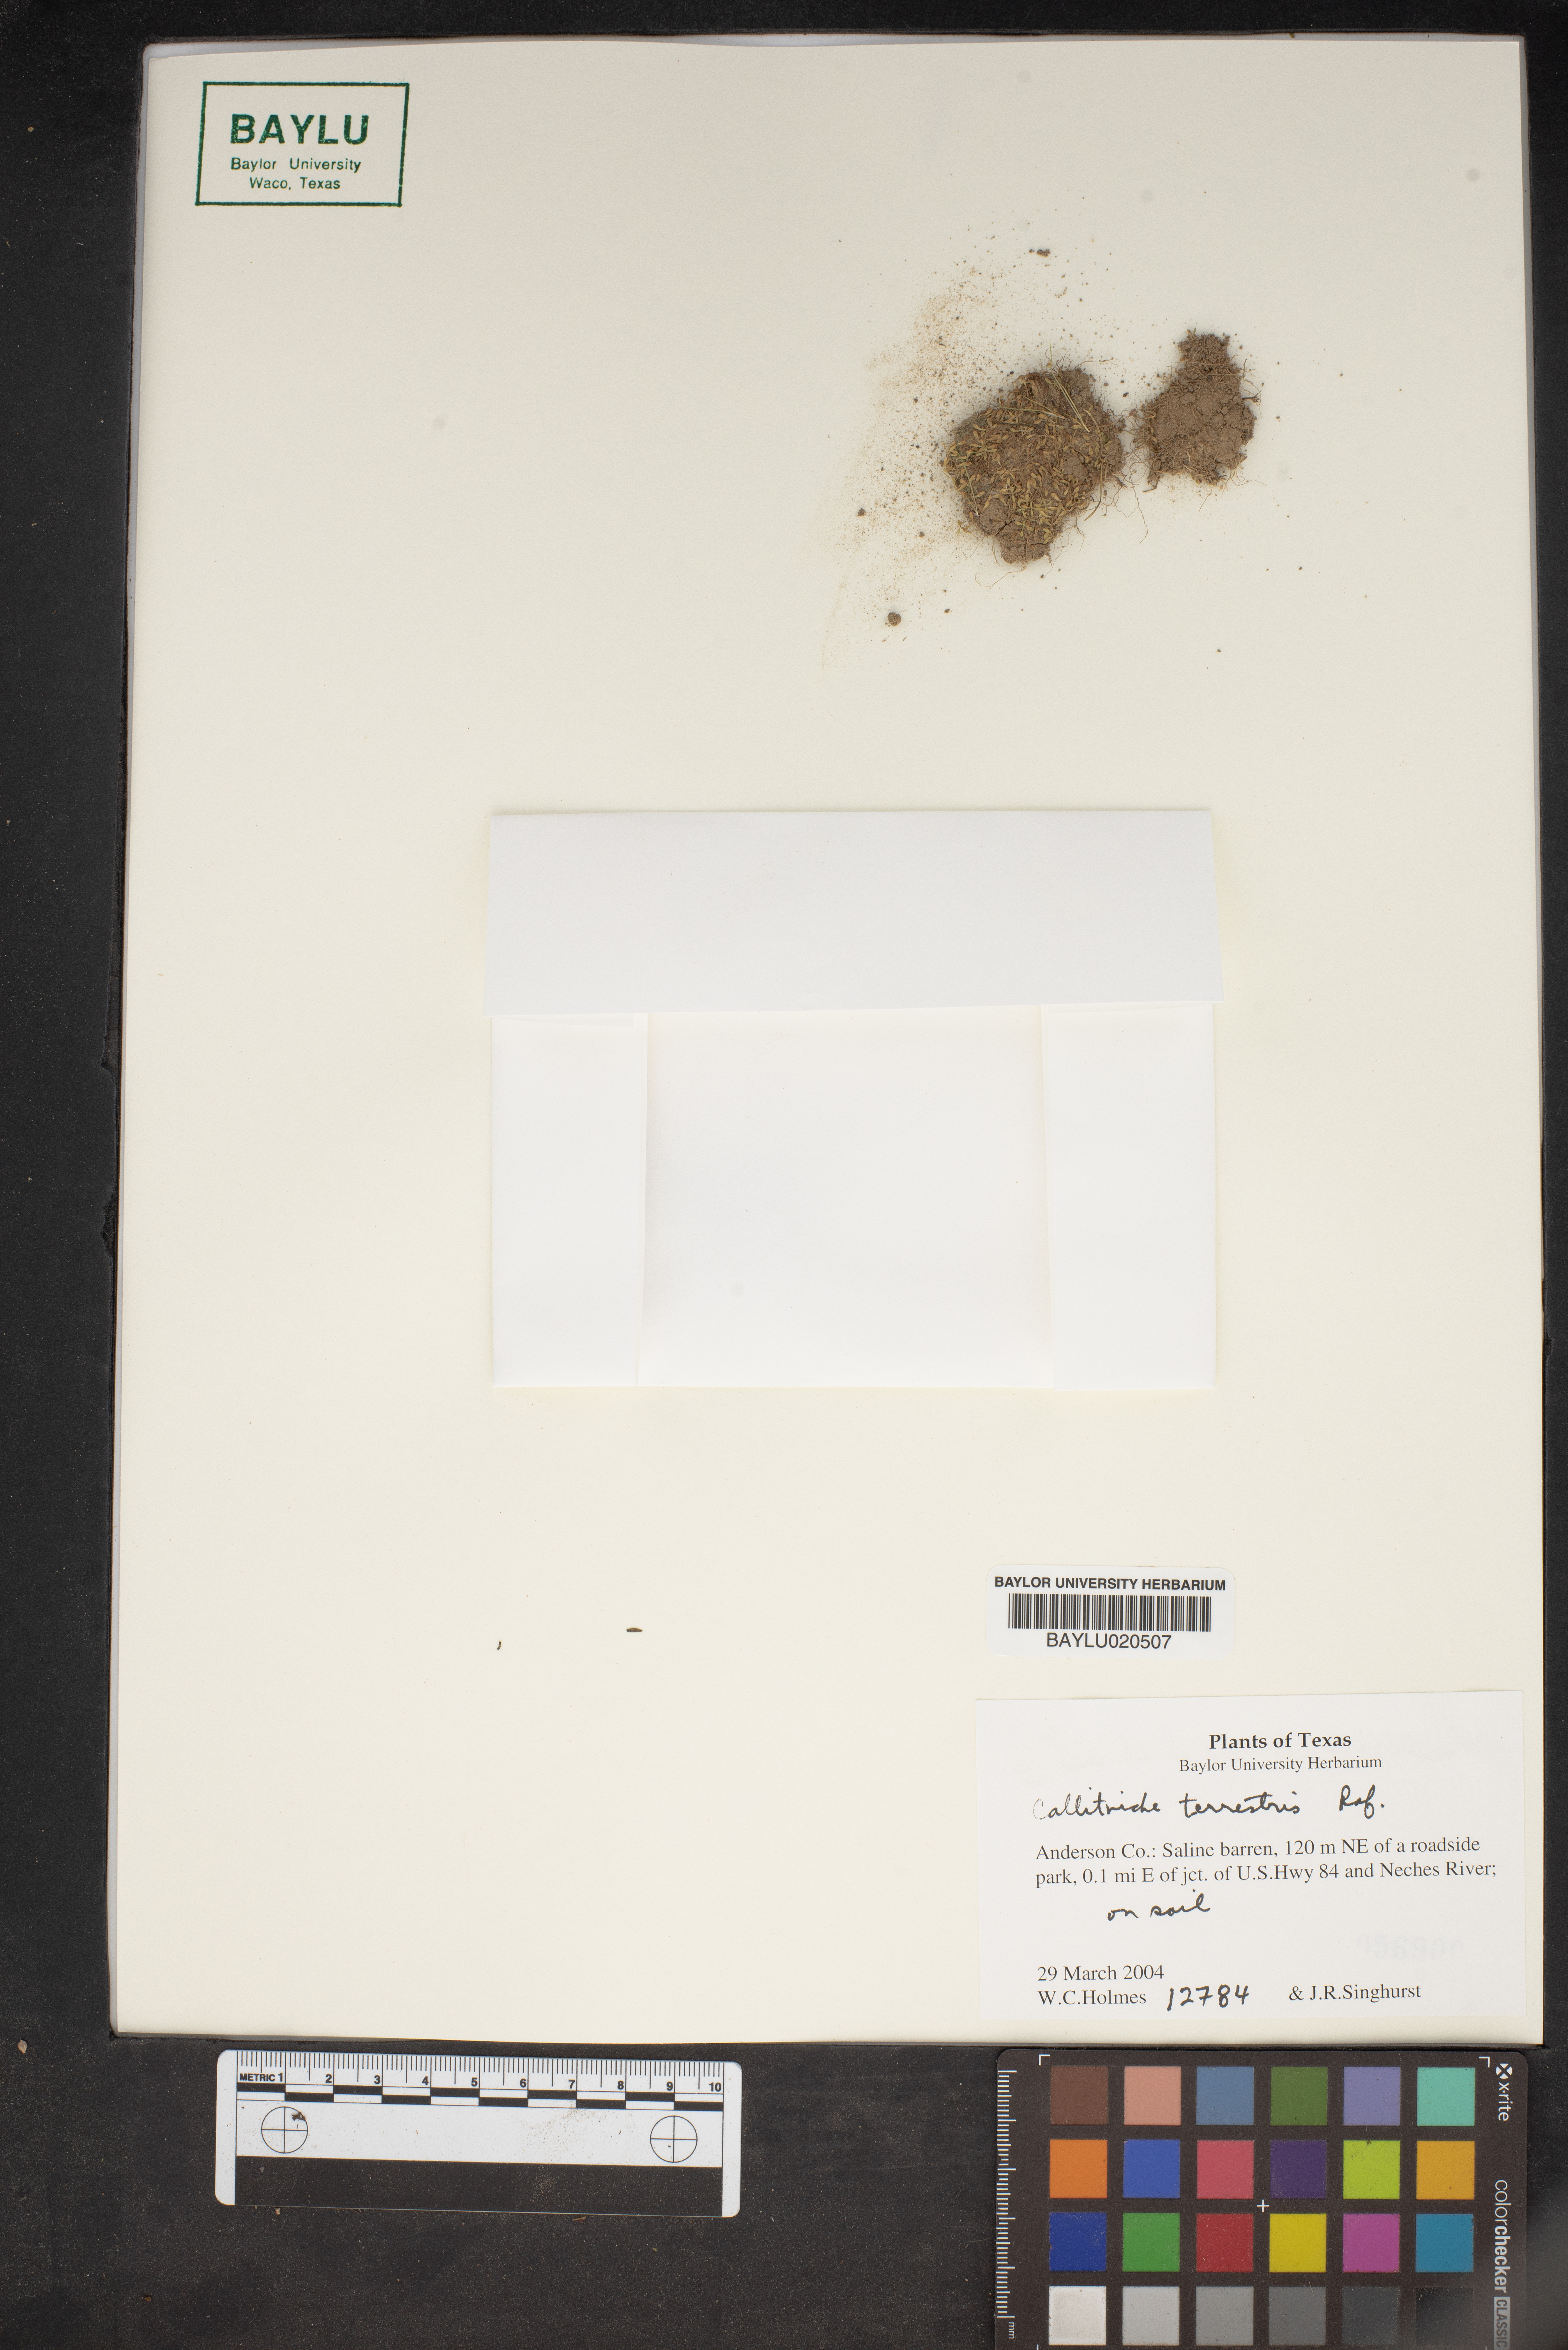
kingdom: Plantae
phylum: Tracheophyta
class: Magnoliopsida
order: Lamiales
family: Plantaginaceae
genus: Callitriche
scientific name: Callitriche terrestris
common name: Terrestrial water-starwort
